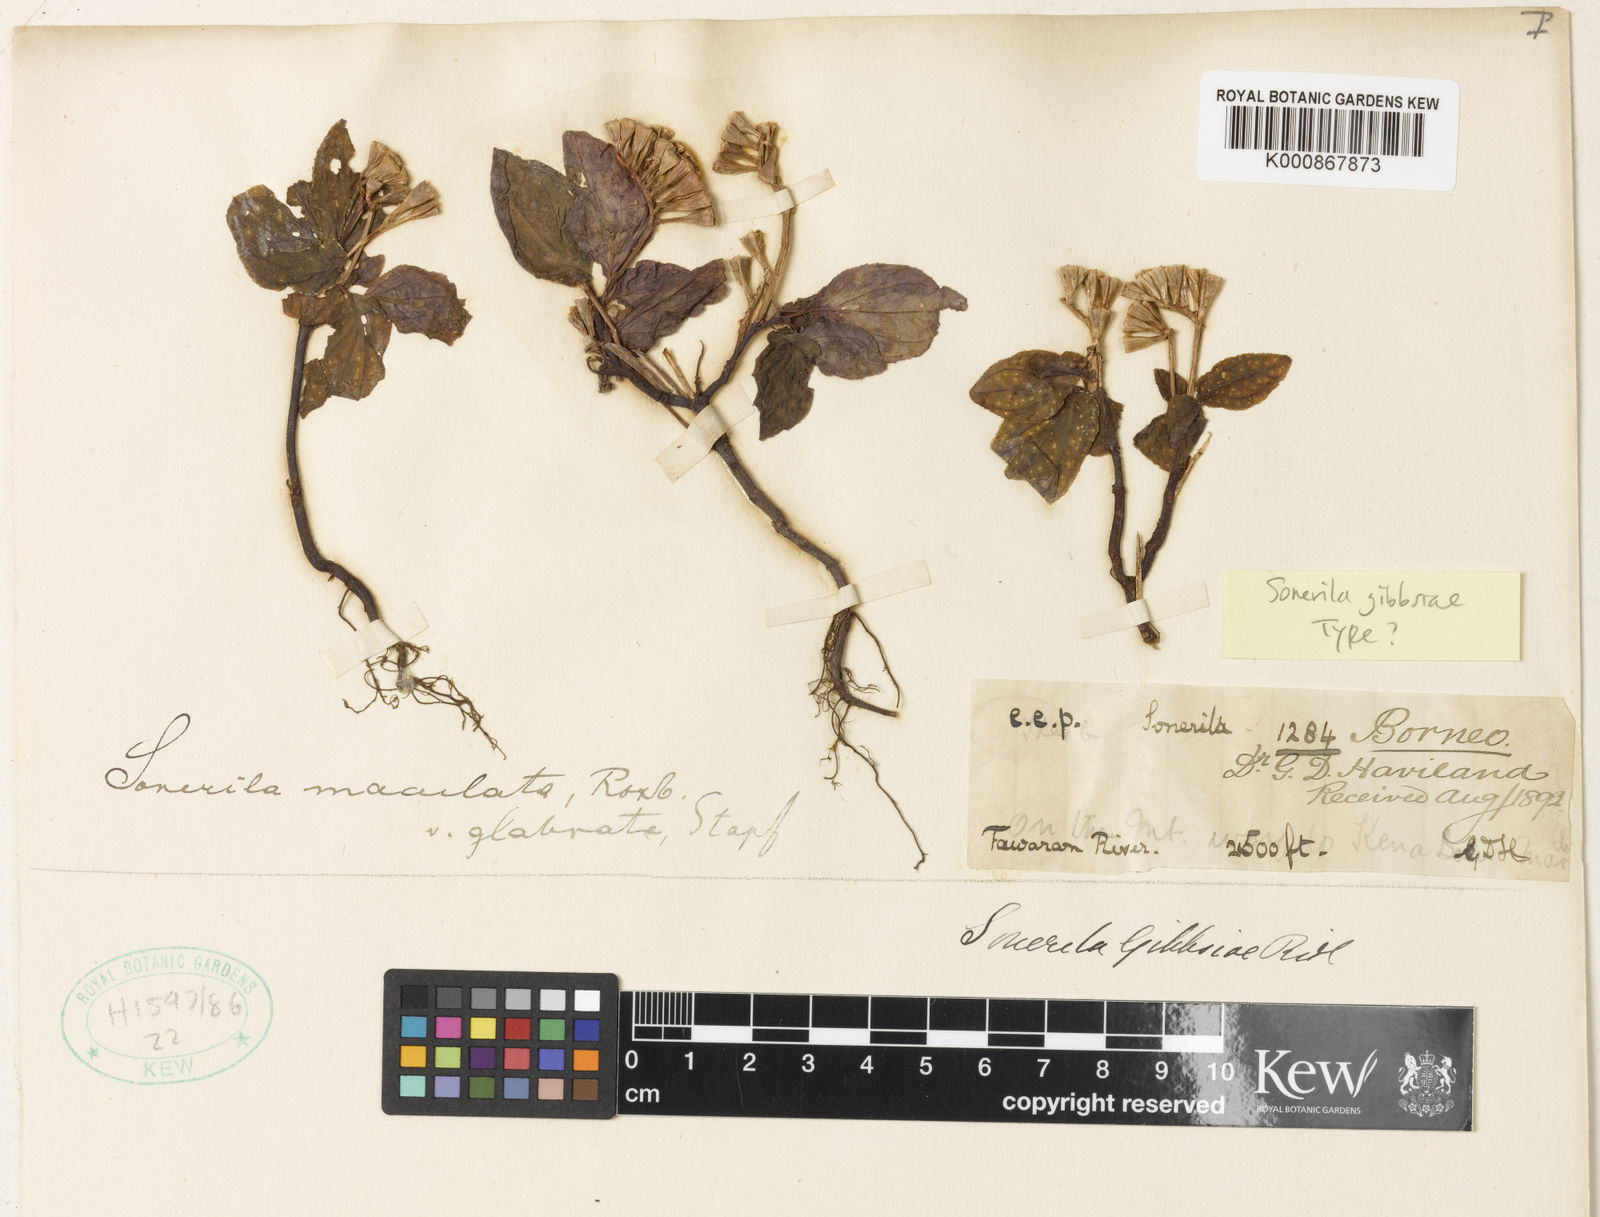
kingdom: Plantae
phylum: Tracheophyta
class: Magnoliopsida
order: Myrtales
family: Melastomataceae
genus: Sonerila
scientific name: Sonerila maculata
